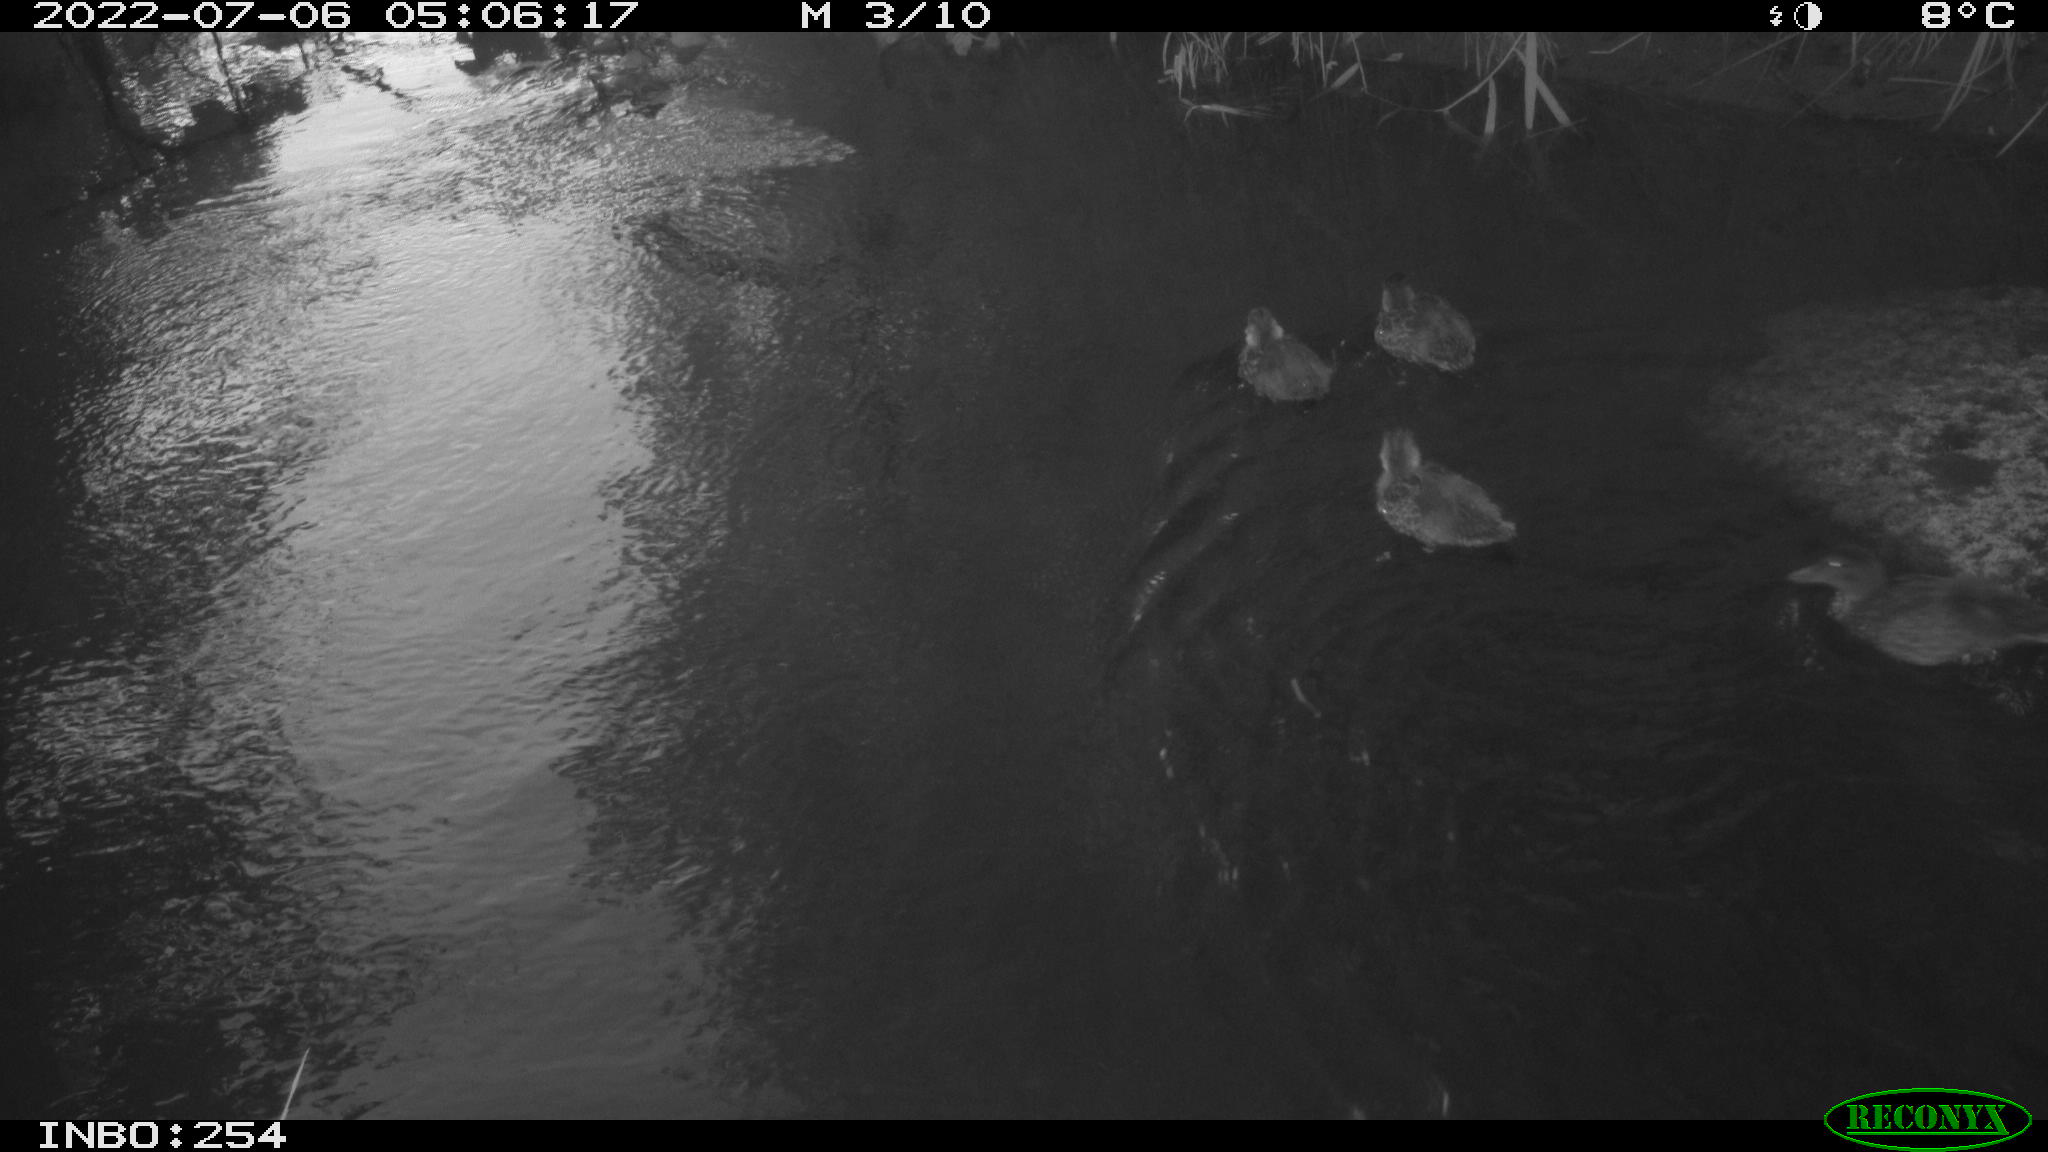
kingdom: Animalia
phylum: Chordata
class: Aves
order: Anseriformes
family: Anatidae
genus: Anas
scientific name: Anas platyrhynchos
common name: Mallard
